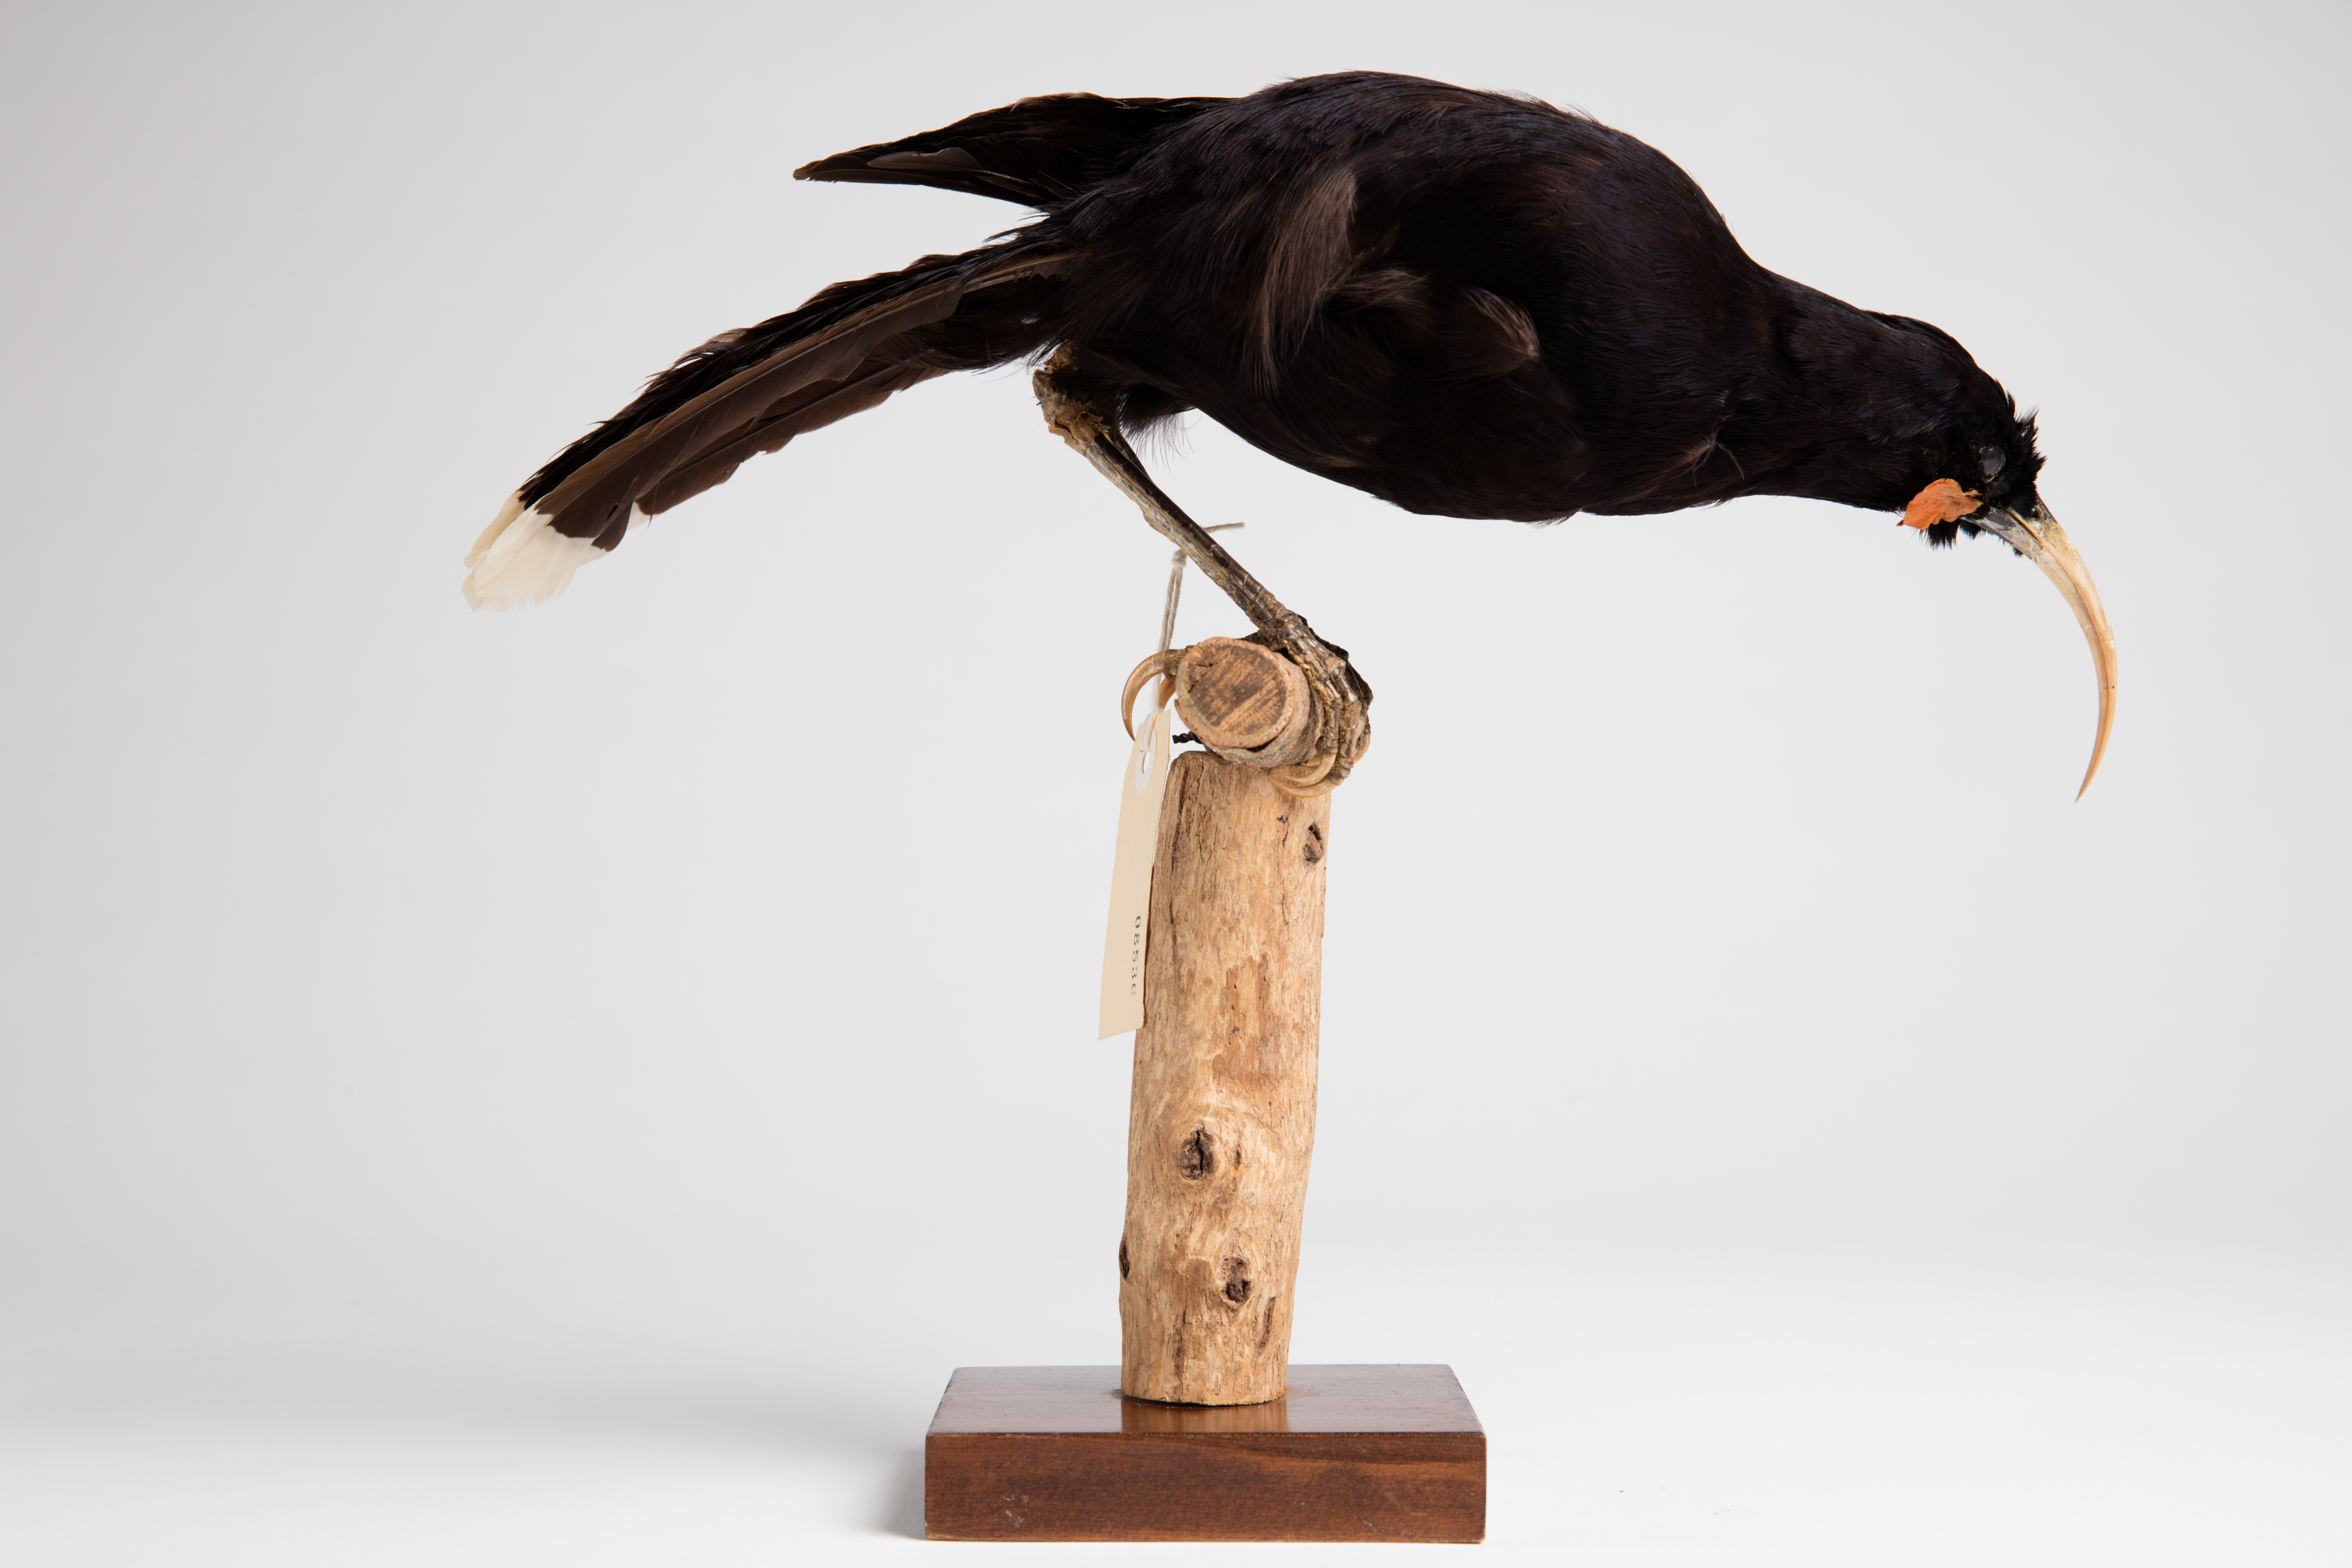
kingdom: Animalia
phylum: Chordata
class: Aves
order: Passeriformes
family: Callaeatidae
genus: Heteralocha
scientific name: Heteralocha acutirostris
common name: Huia
